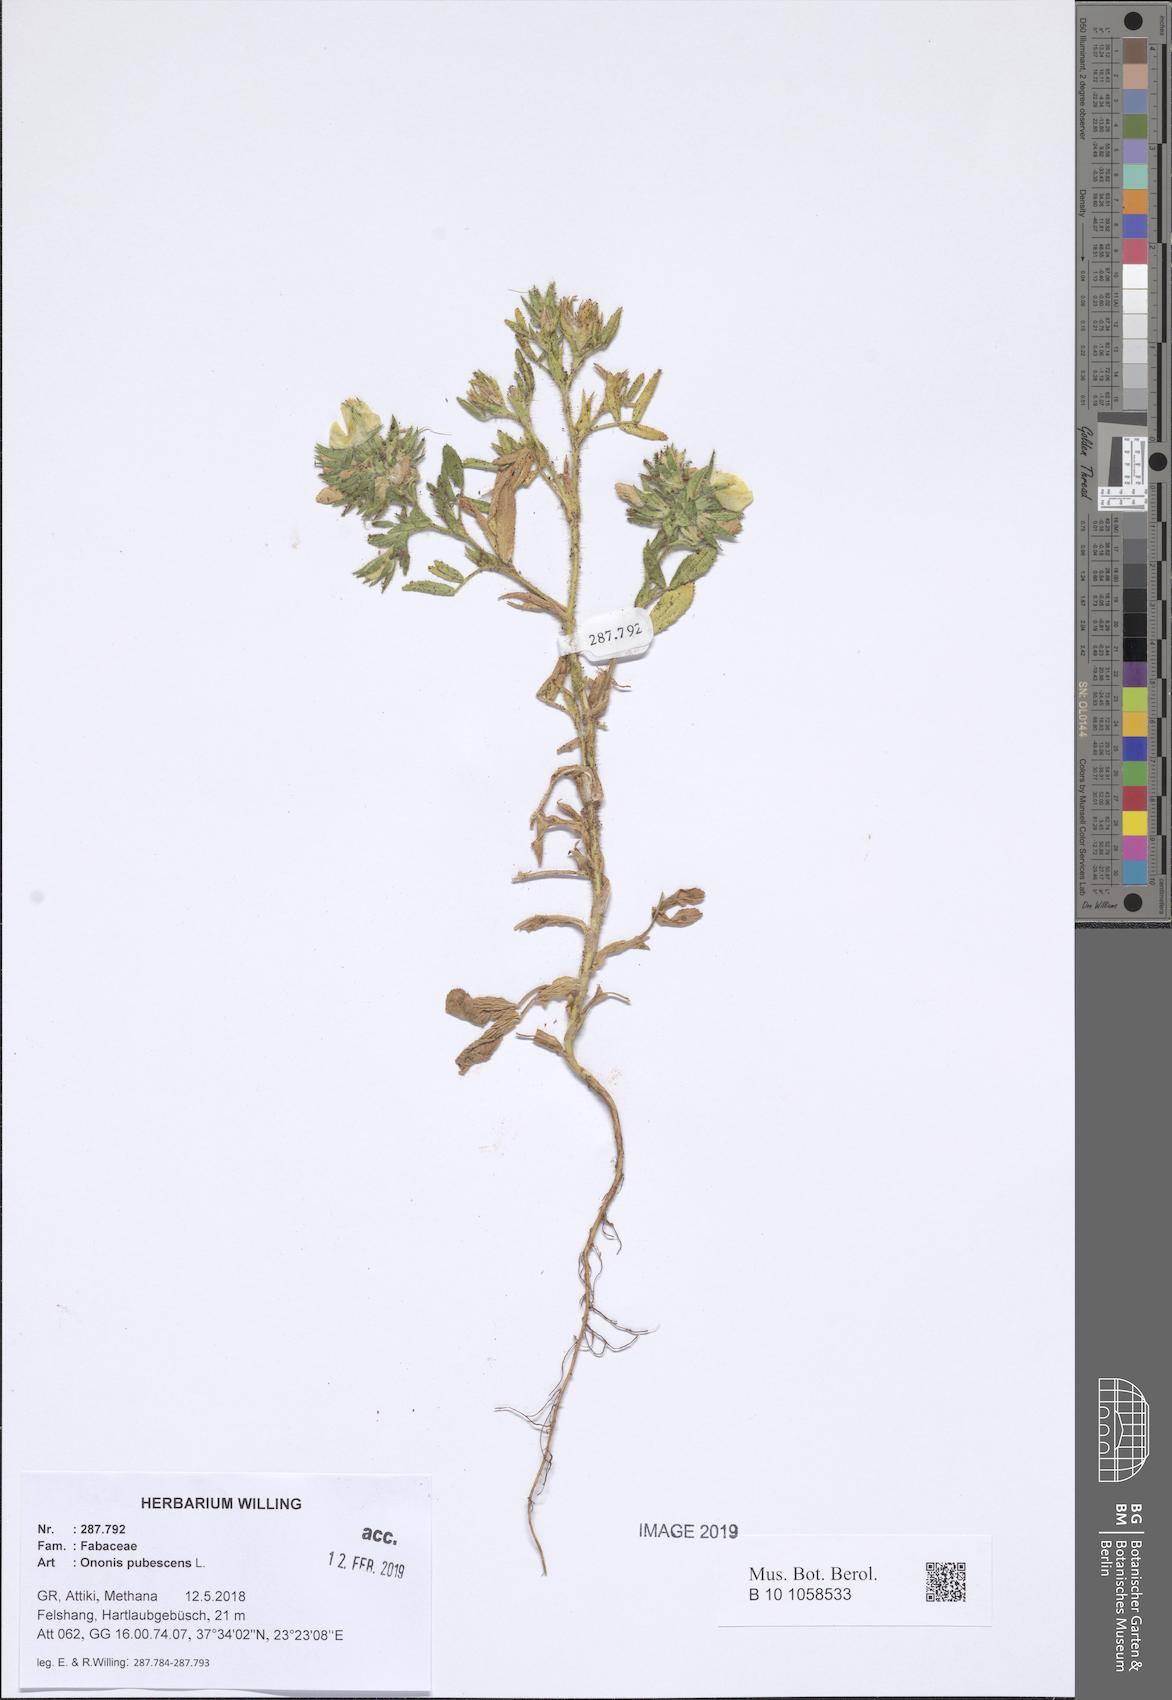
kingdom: Plantae
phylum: Tracheophyta
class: Magnoliopsida
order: Fabales
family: Fabaceae
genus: Ononis
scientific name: Ononis pubescens
